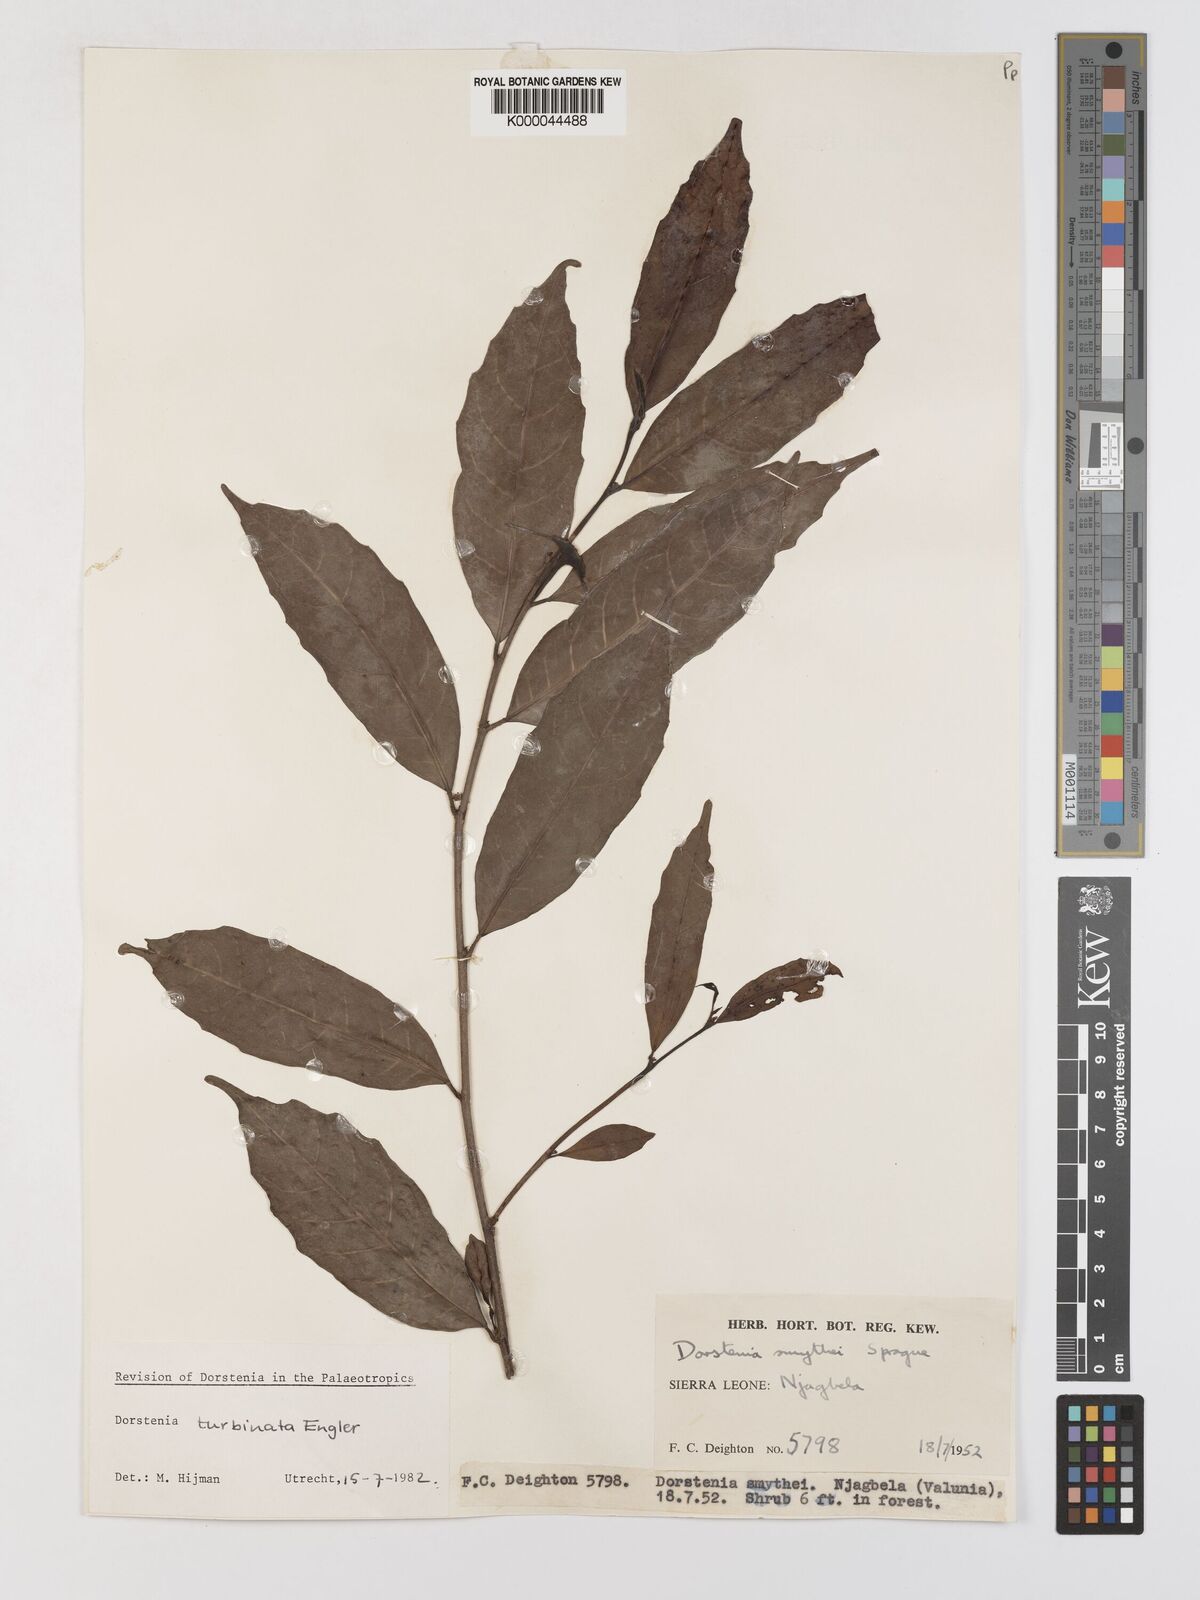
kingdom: Plantae
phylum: Tracheophyta
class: Magnoliopsida
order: Rosales
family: Moraceae
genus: Hijmania
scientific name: Hijmania turbinata
